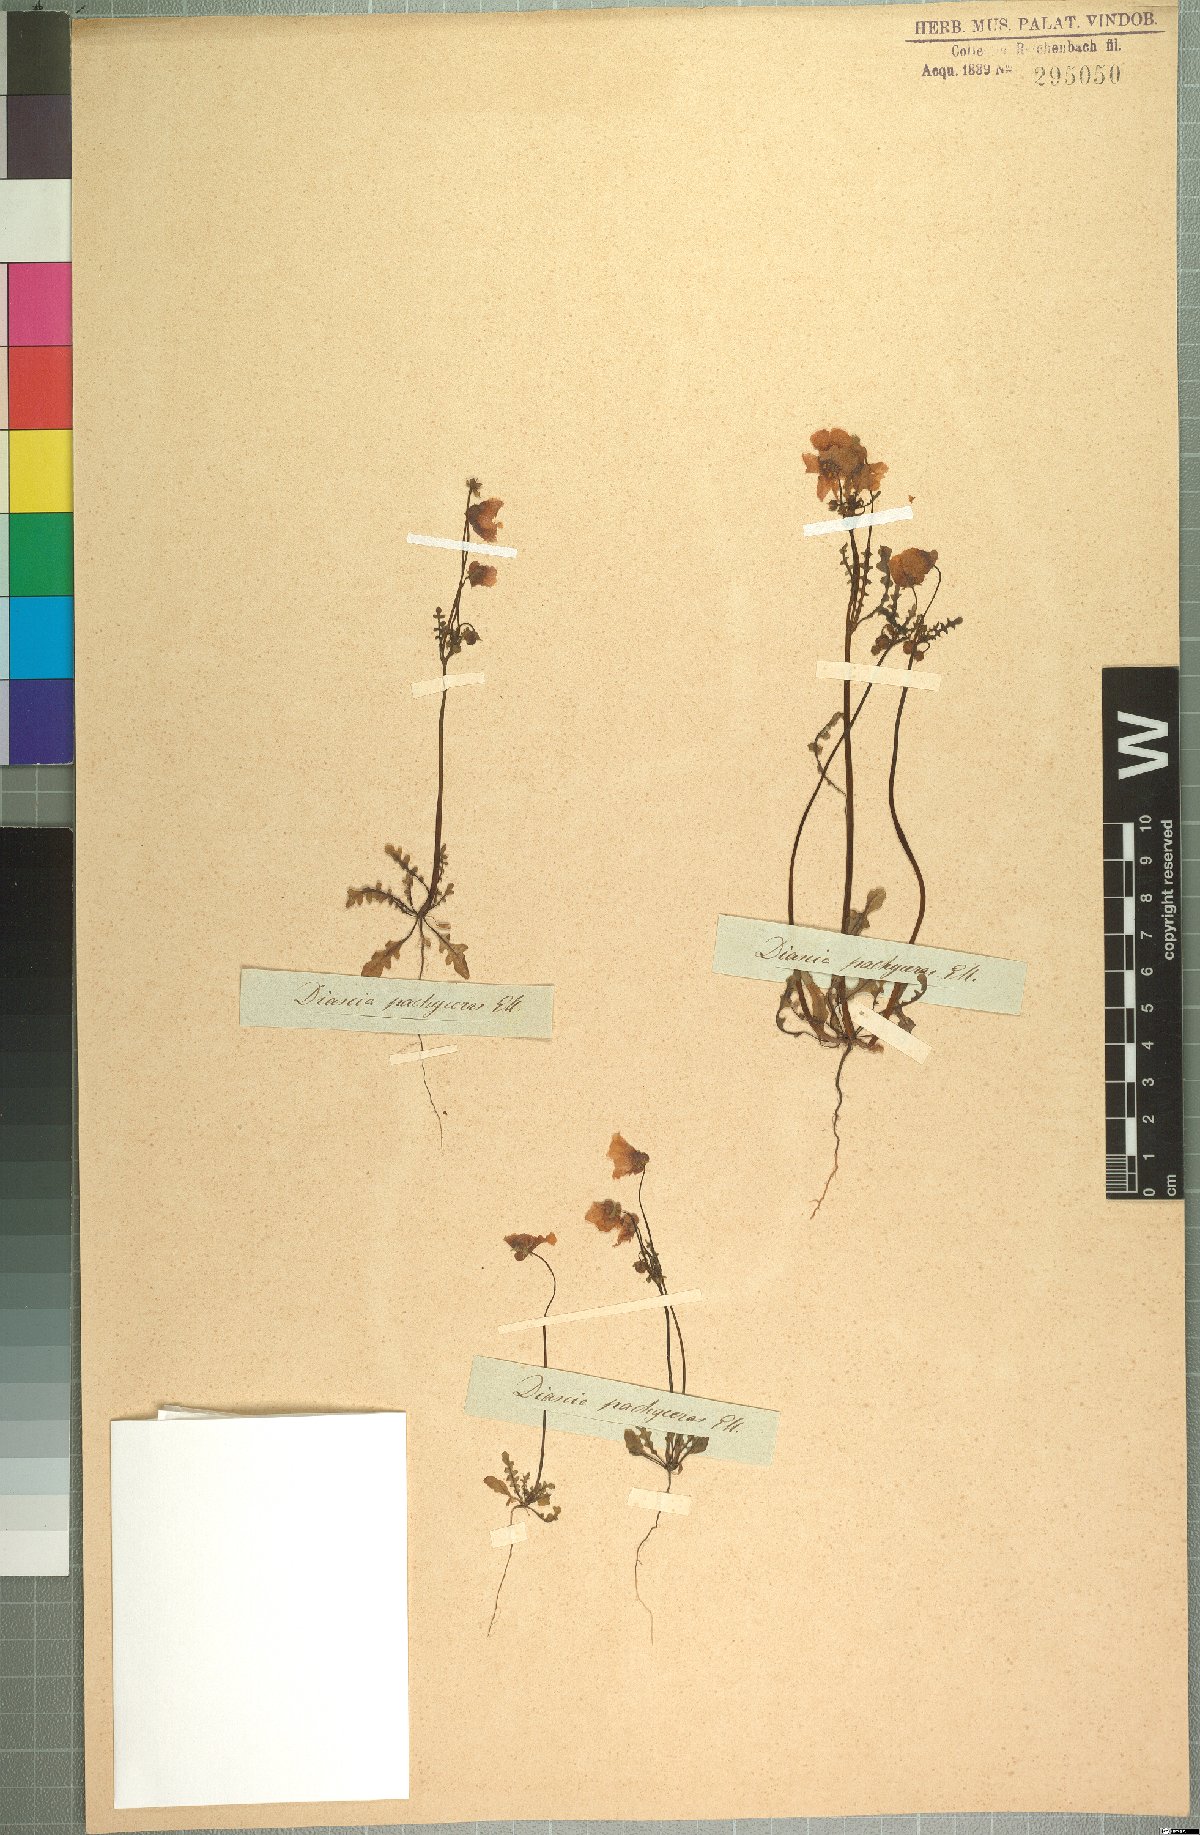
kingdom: Plantae
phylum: Tracheophyta
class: Magnoliopsida
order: Lamiales
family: Scrophulariaceae
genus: Diascia
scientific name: Diascia pachyceras
